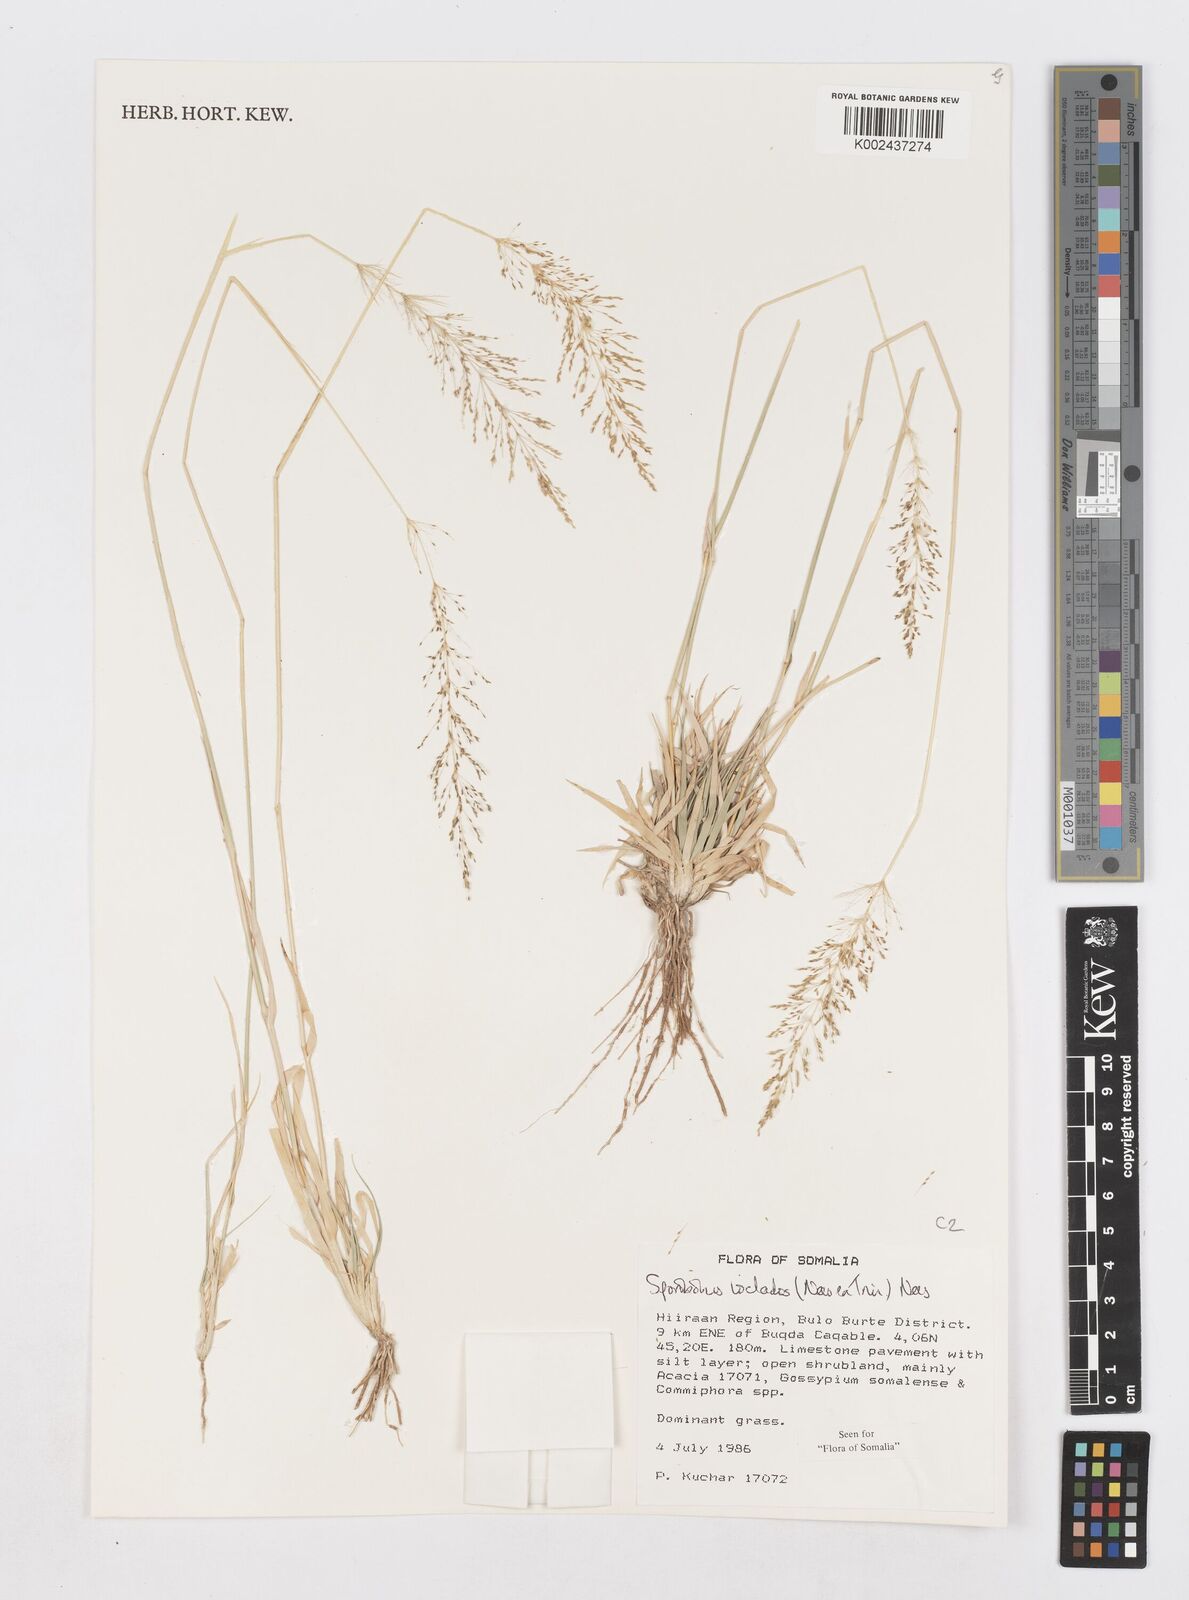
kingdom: Plantae
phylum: Tracheophyta
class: Liliopsida
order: Poales
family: Poaceae
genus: Sporobolus
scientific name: Sporobolus ioclados
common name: Pan dropseed
